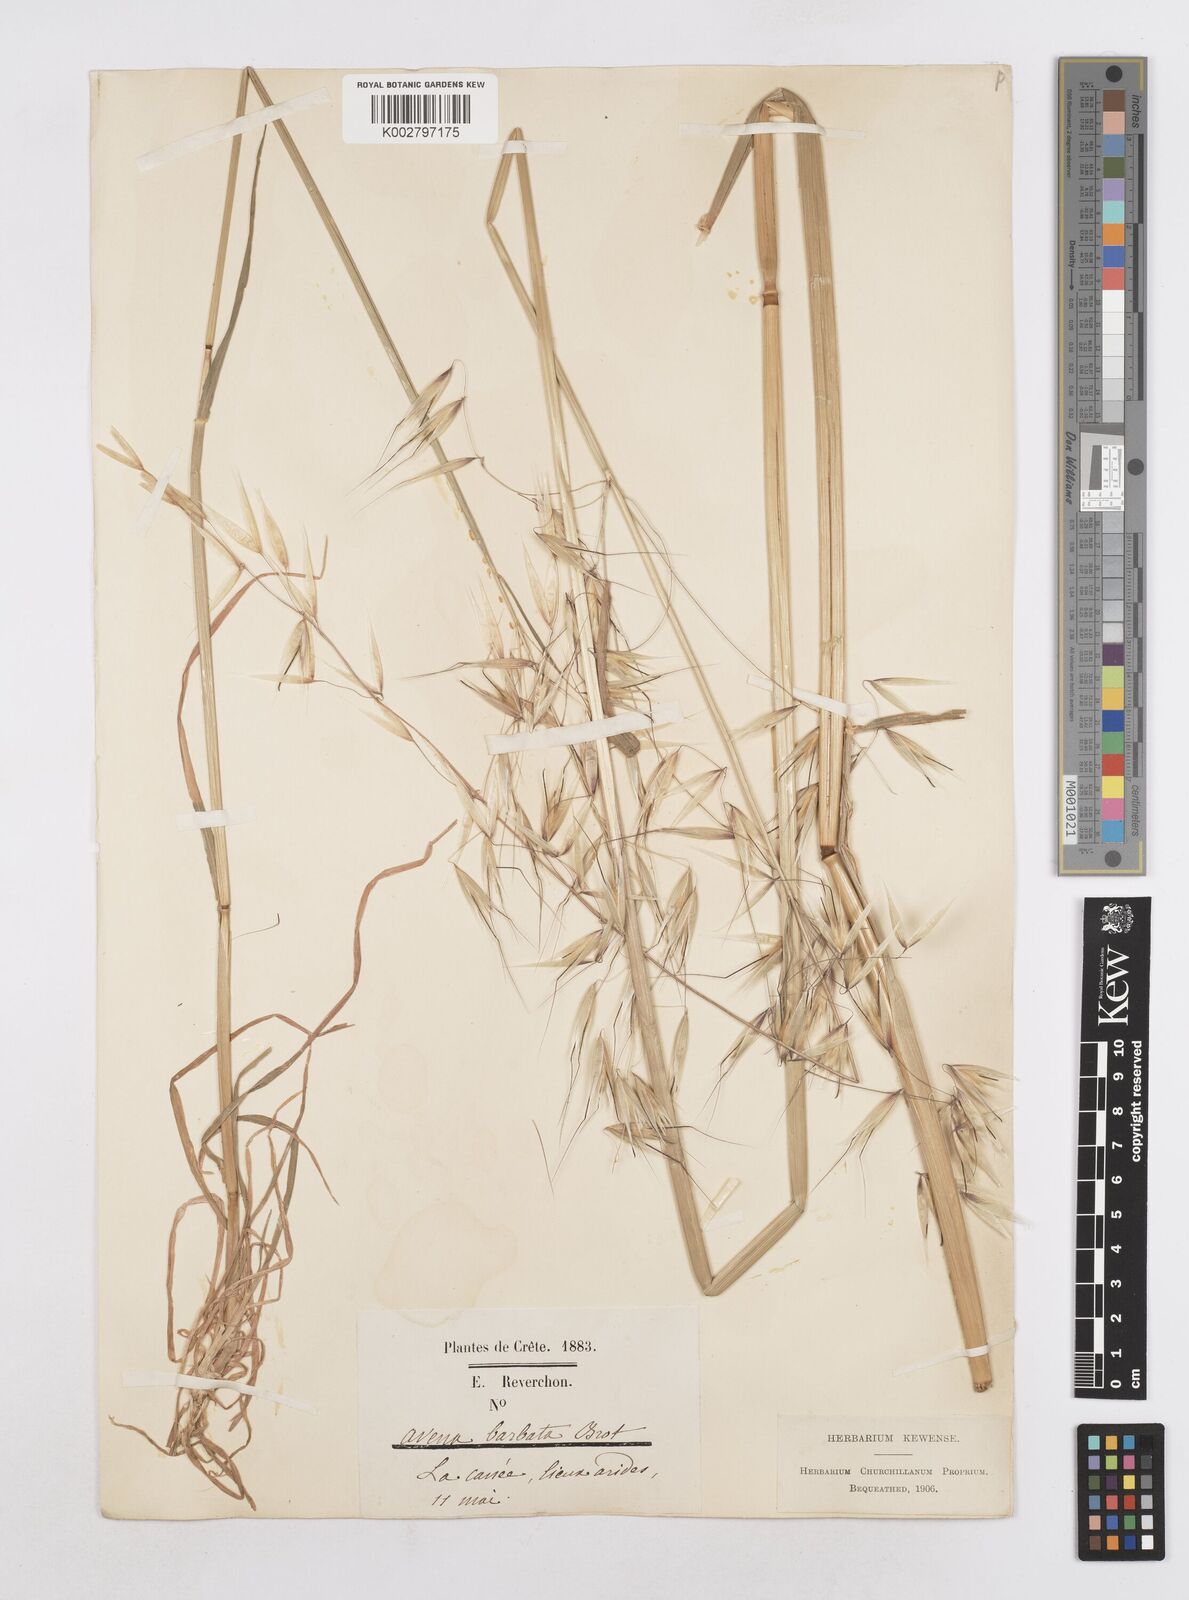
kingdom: Plantae
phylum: Tracheophyta
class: Liliopsida
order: Poales
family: Poaceae
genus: Avena
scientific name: Avena
